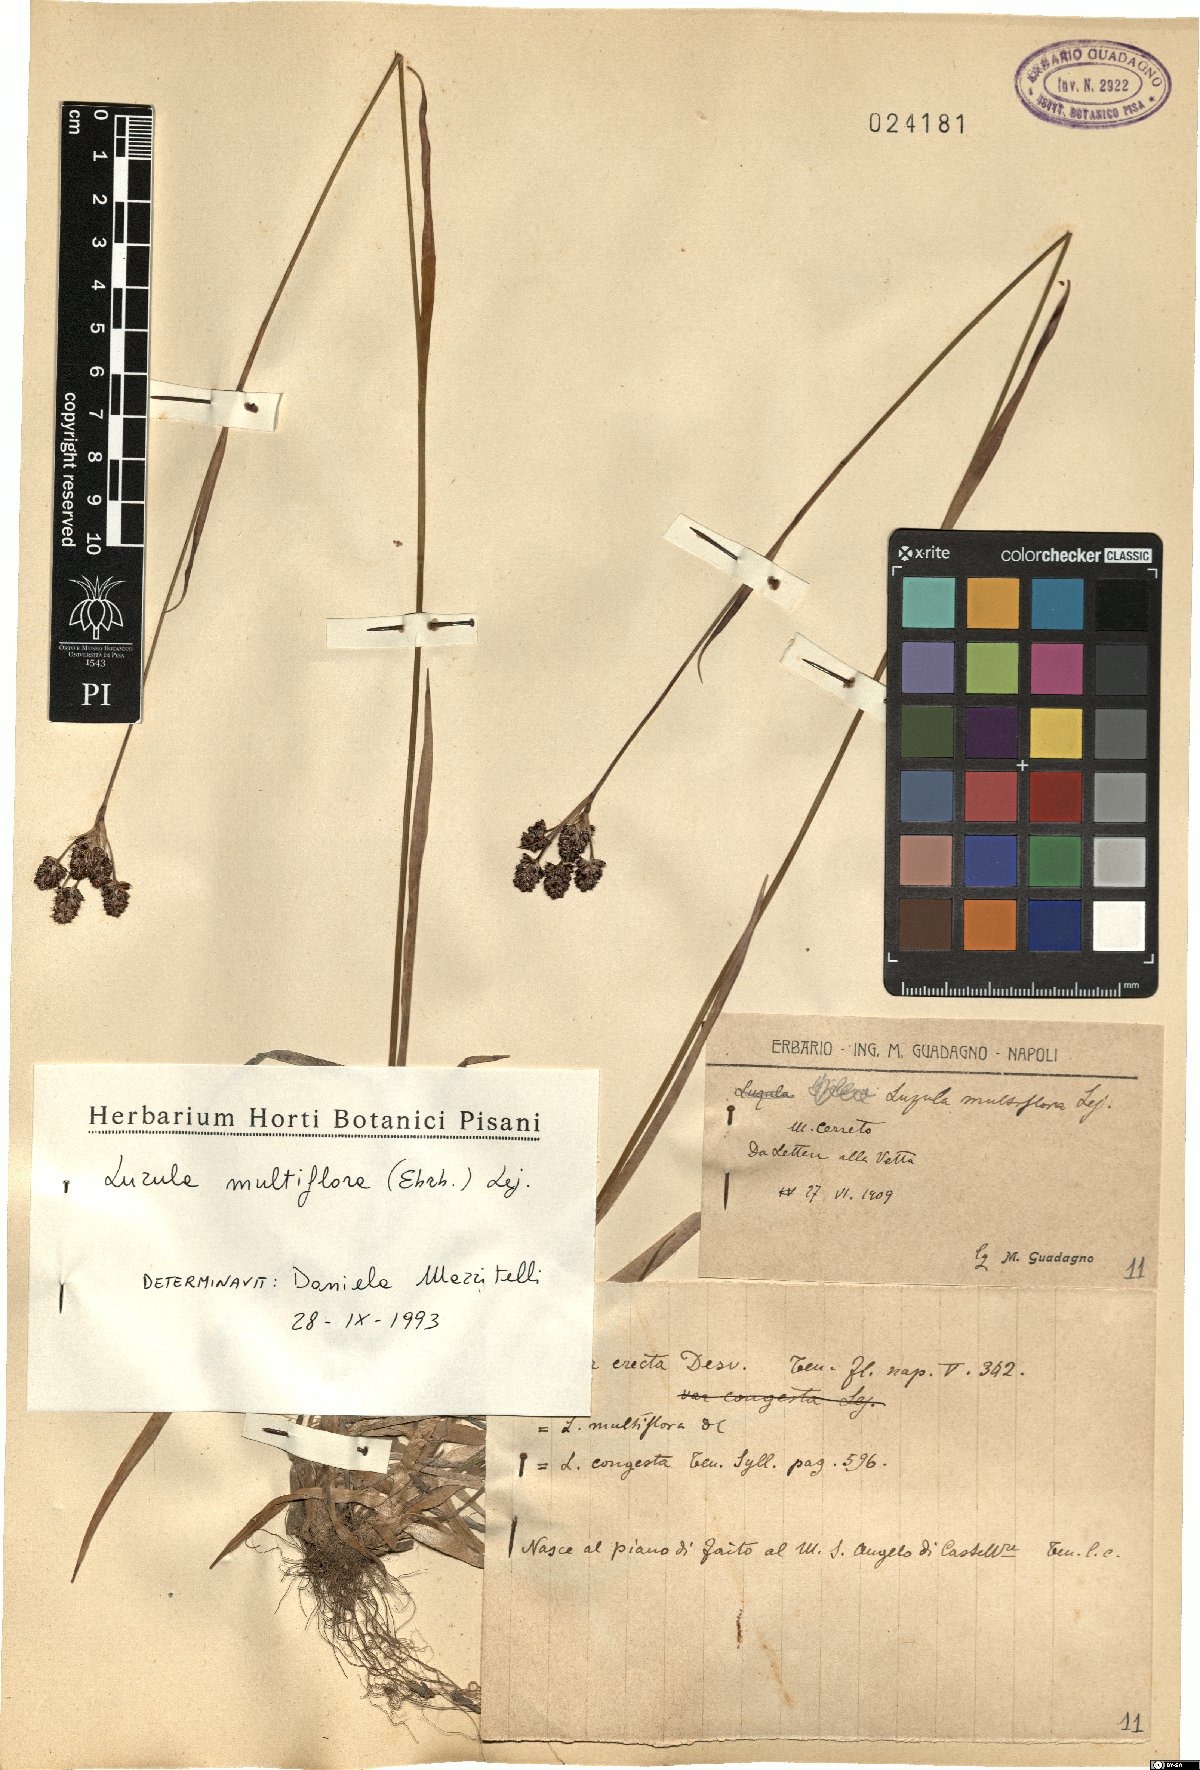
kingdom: Plantae
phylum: Tracheophyta
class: Liliopsida
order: Poales
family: Juncaceae
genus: Luzula
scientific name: Luzula multiflora
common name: Heath wood-rush
